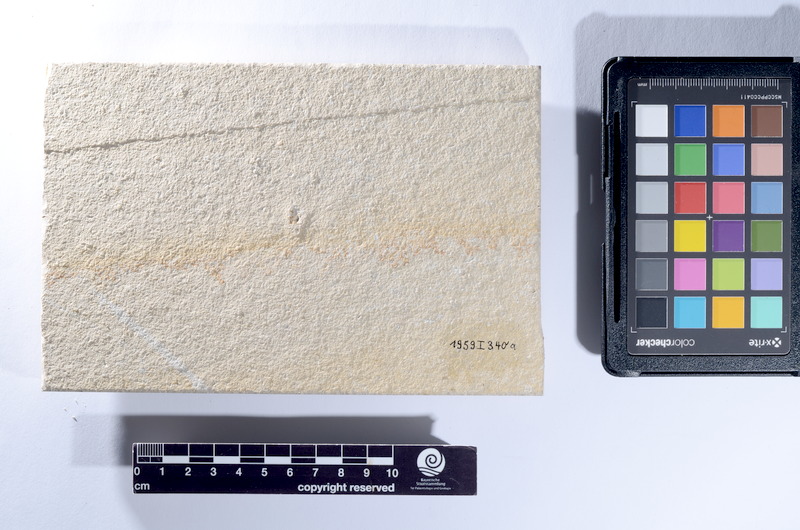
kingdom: Animalia
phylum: Chordata
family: Ophiopsiellidae
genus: Furo
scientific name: Furo longiserratus
